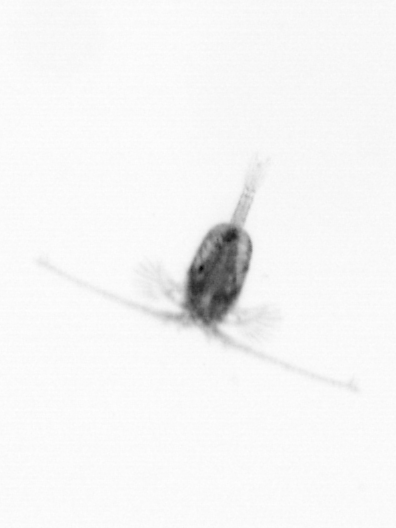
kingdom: Animalia
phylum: Arthropoda
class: Copepoda
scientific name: Copepoda
